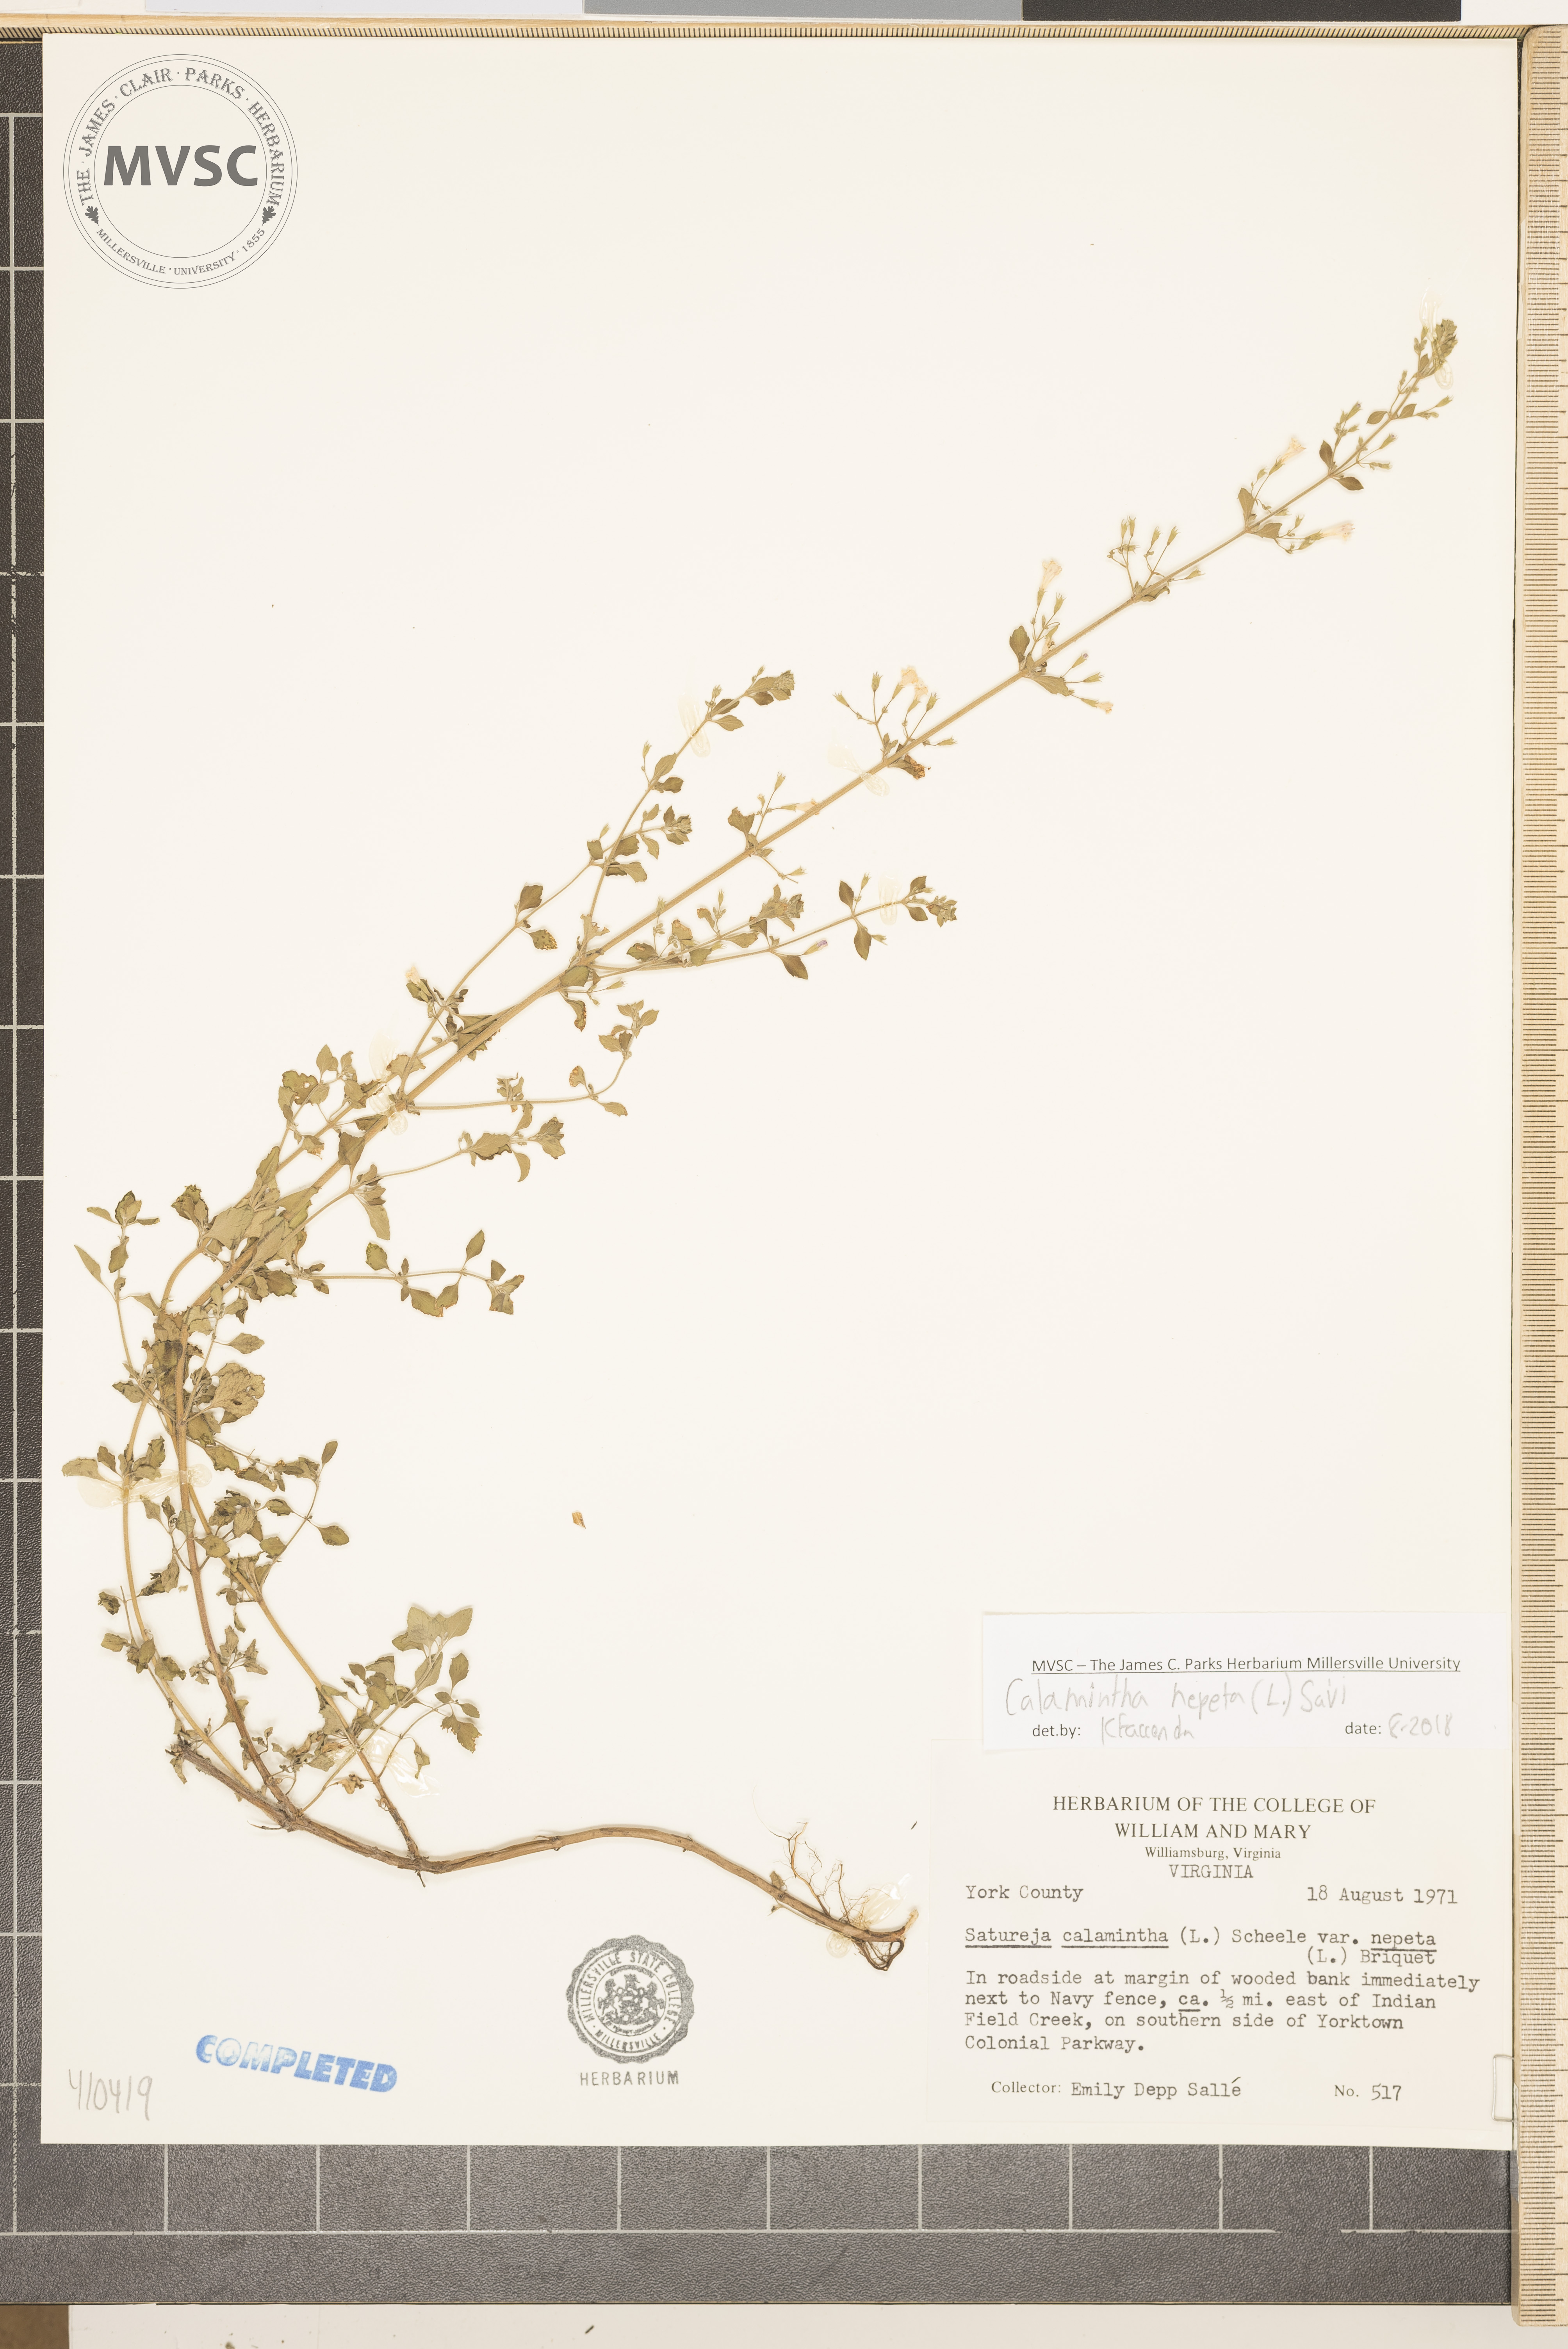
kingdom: Plantae
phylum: Tracheophyta
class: Magnoliopsida
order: Lamiales
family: Lamiaceae
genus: Clinopodium
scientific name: Clinopodium nepeta
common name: Lesser calamint
